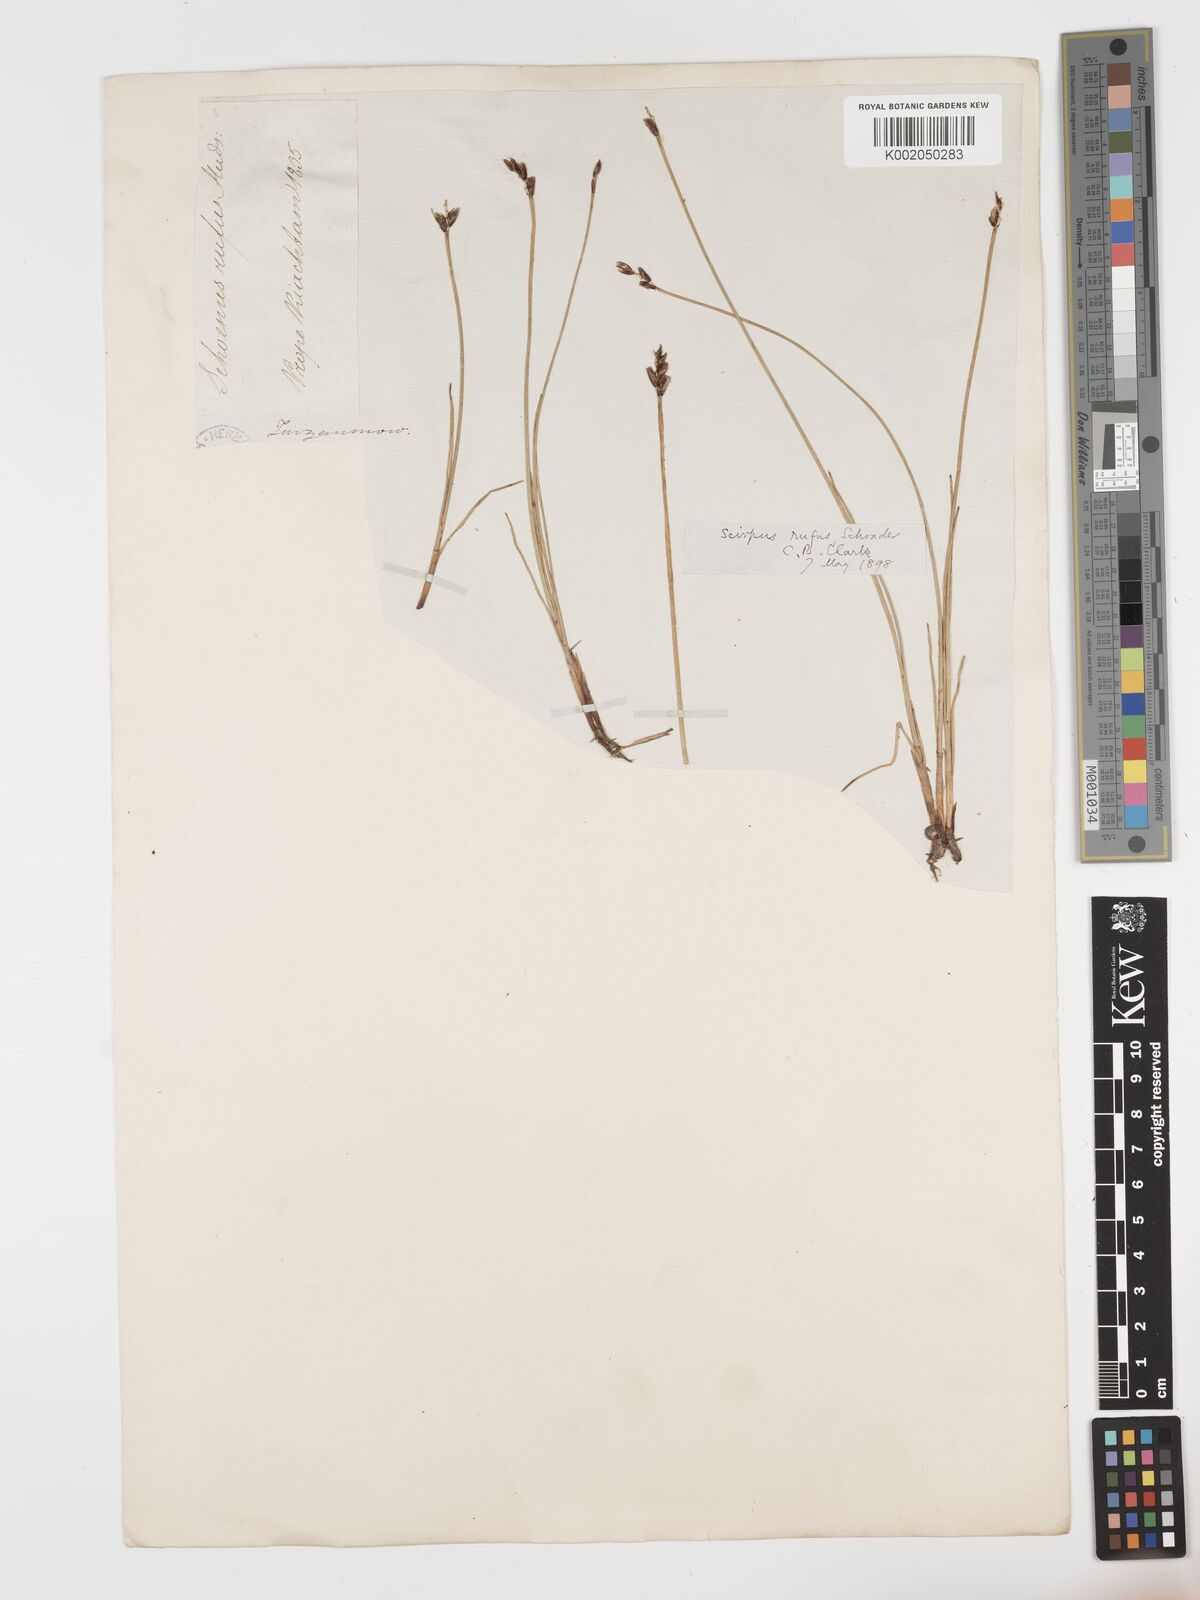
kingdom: Plantae
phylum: Tracheophyta
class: Liliopsida
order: Poales
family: Cyperaceae
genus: Blysmus
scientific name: Blysmus rufus
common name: Saltmarsh flat-sedge
